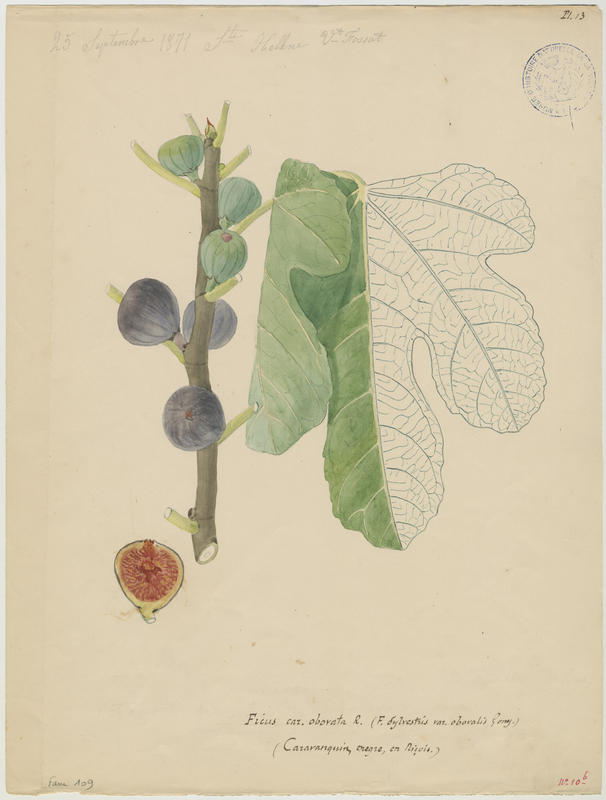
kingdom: Plantae
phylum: Tracheophyta
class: Magnoliopsida
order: Rosales
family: Moraceae
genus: Ficus
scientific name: Ficus carica
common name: Fig
